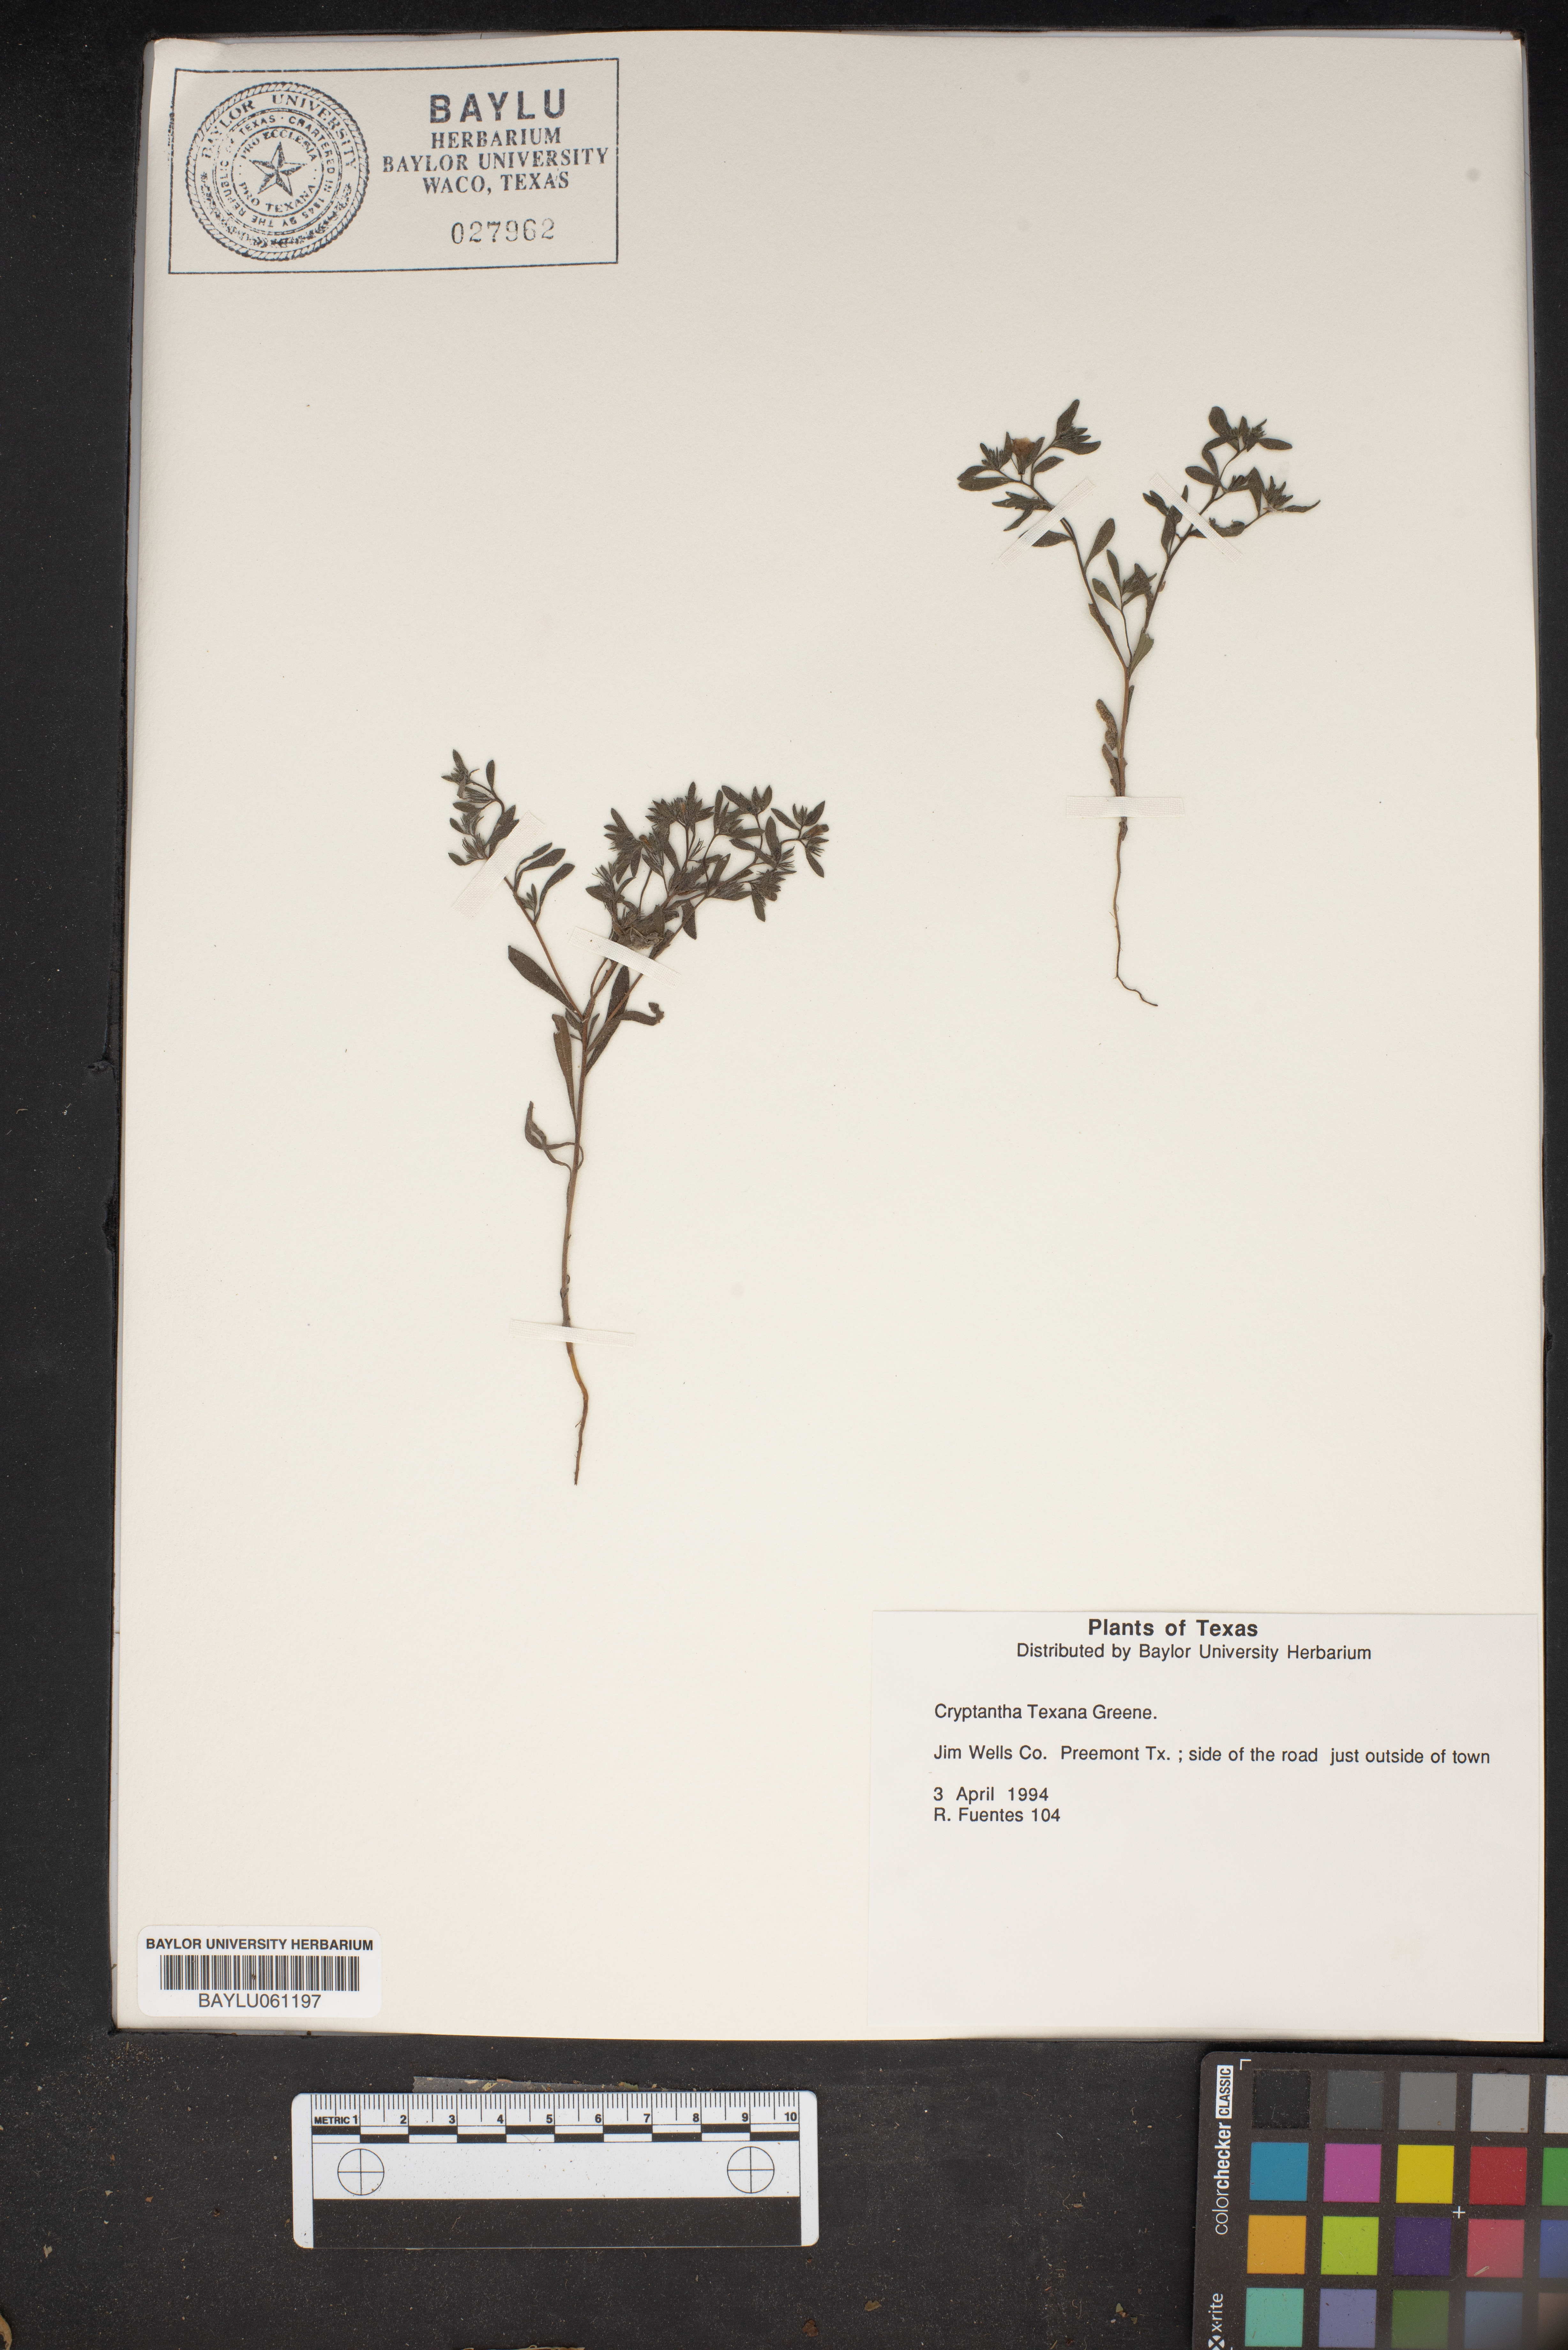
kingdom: Plantae
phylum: Tracheophyta
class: Magnoliopsida
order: Boraginales
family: Boraginaceae
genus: Cryptantha
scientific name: Cryptantha texana
